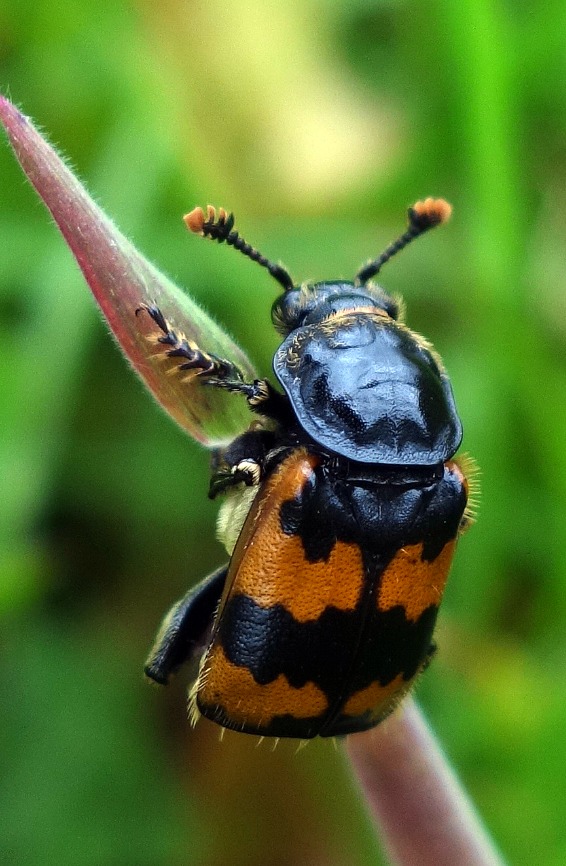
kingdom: Animalia
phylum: Arthropoda
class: Insecta
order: Coleoptera
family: Staphylinidae
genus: Nicrophorus
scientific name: Nicrophorus vespillo
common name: Krumbenet ådselgraver
